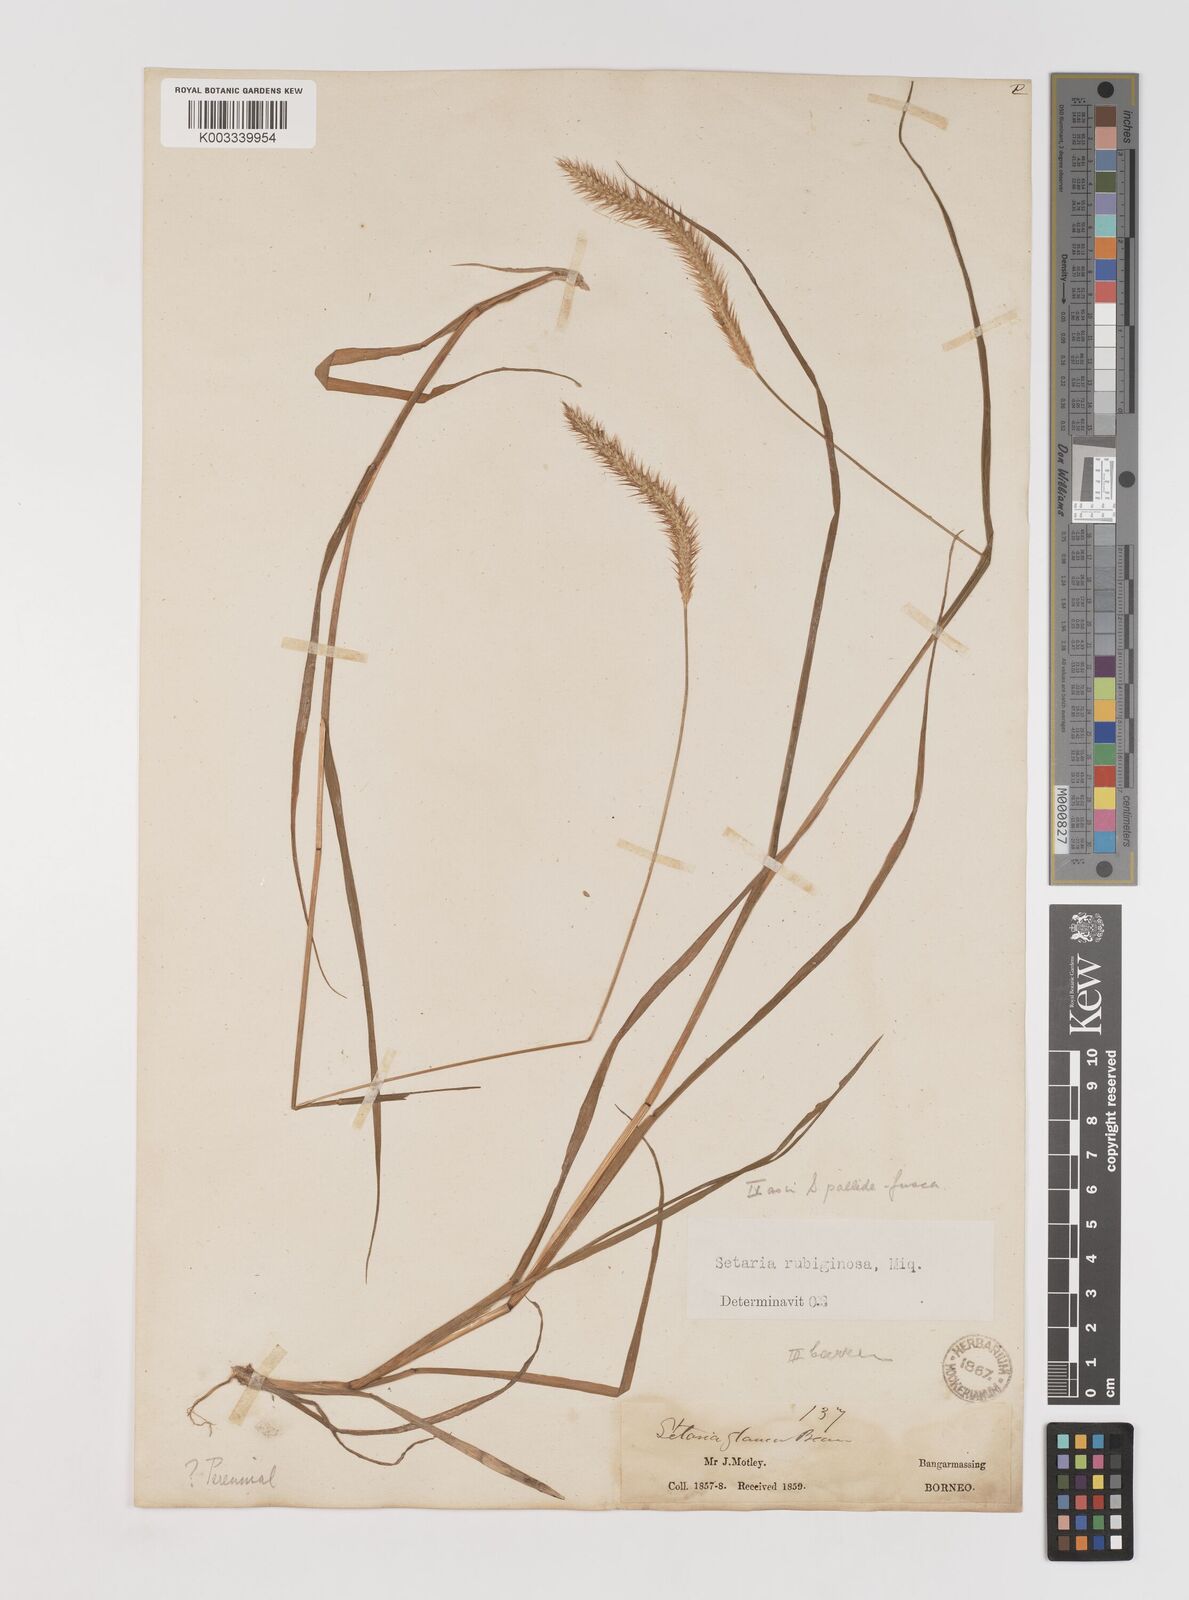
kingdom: Plantae
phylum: Tracheophyta
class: Liliopsida
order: Poales
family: Poaceae
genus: Setaria
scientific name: Setaria parviflora
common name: Knotroot bristle-grass
